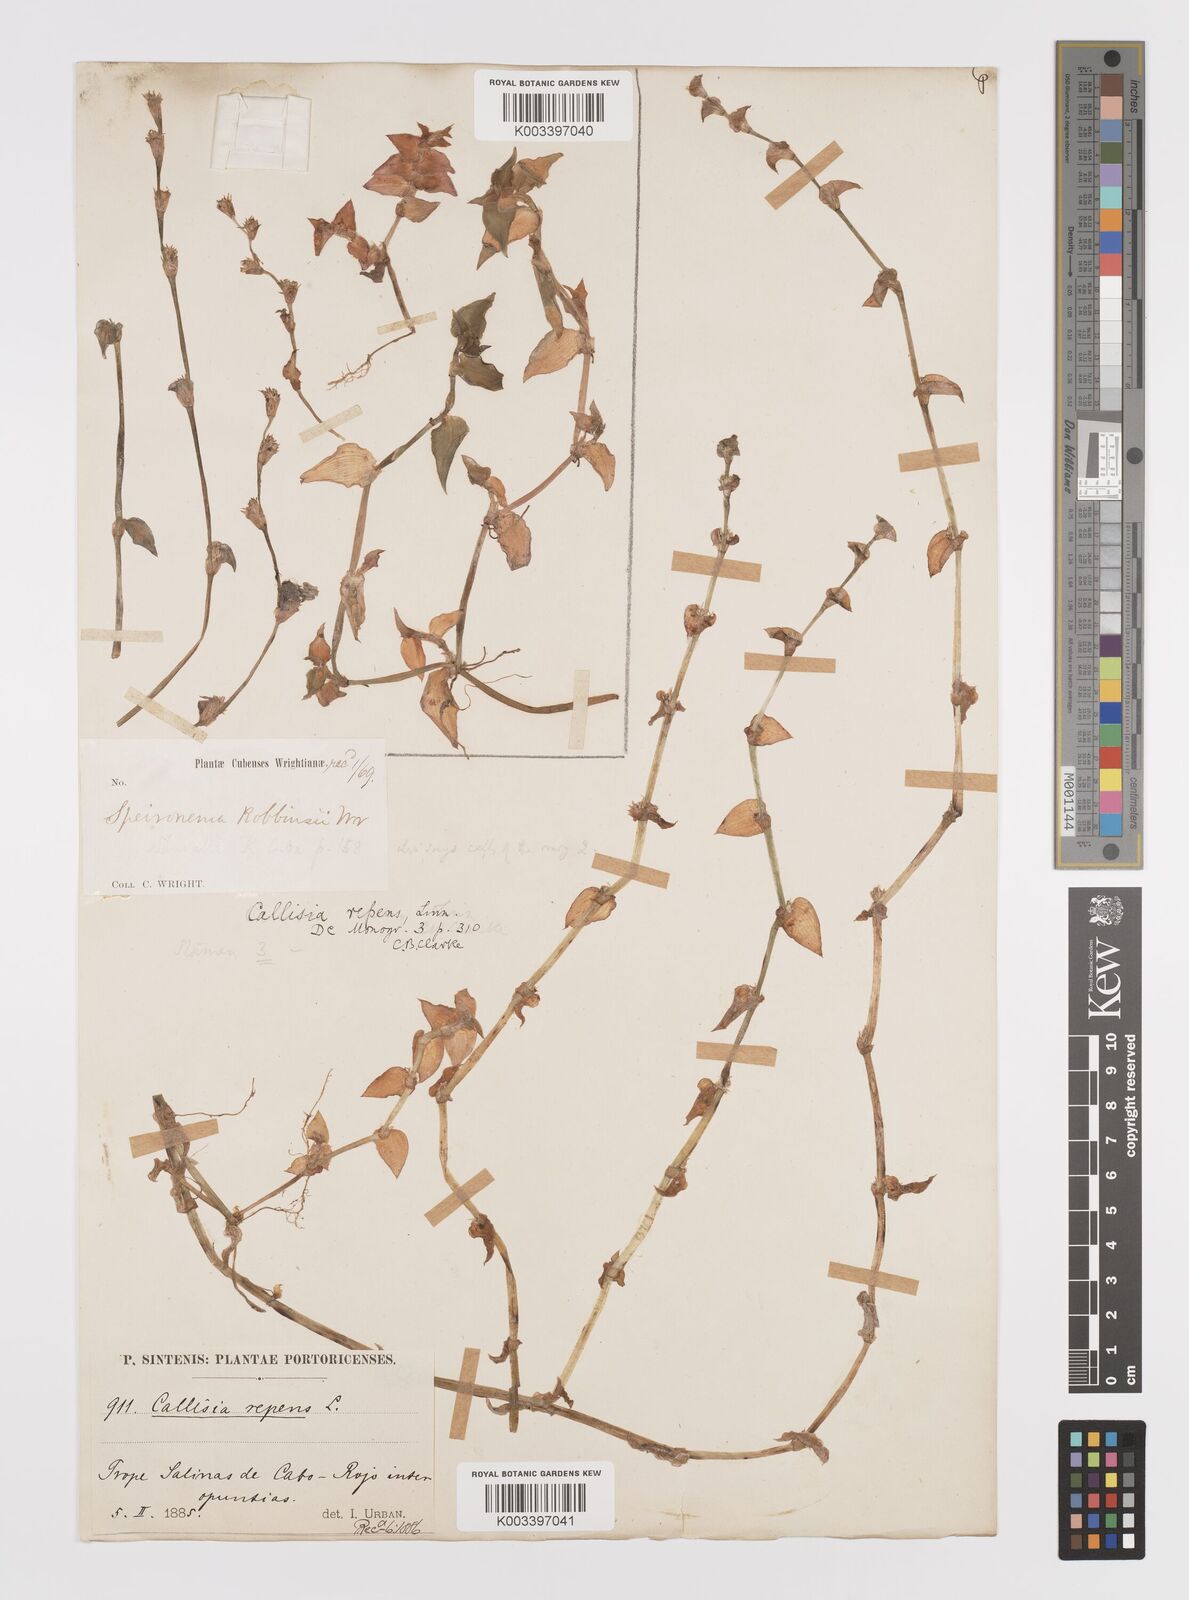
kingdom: Plantae
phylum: Tracheophyta
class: Liliopsida
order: Commelinales
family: Commelinaceae
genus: Callisia
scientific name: Callisia repens
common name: Creeping inchplant
